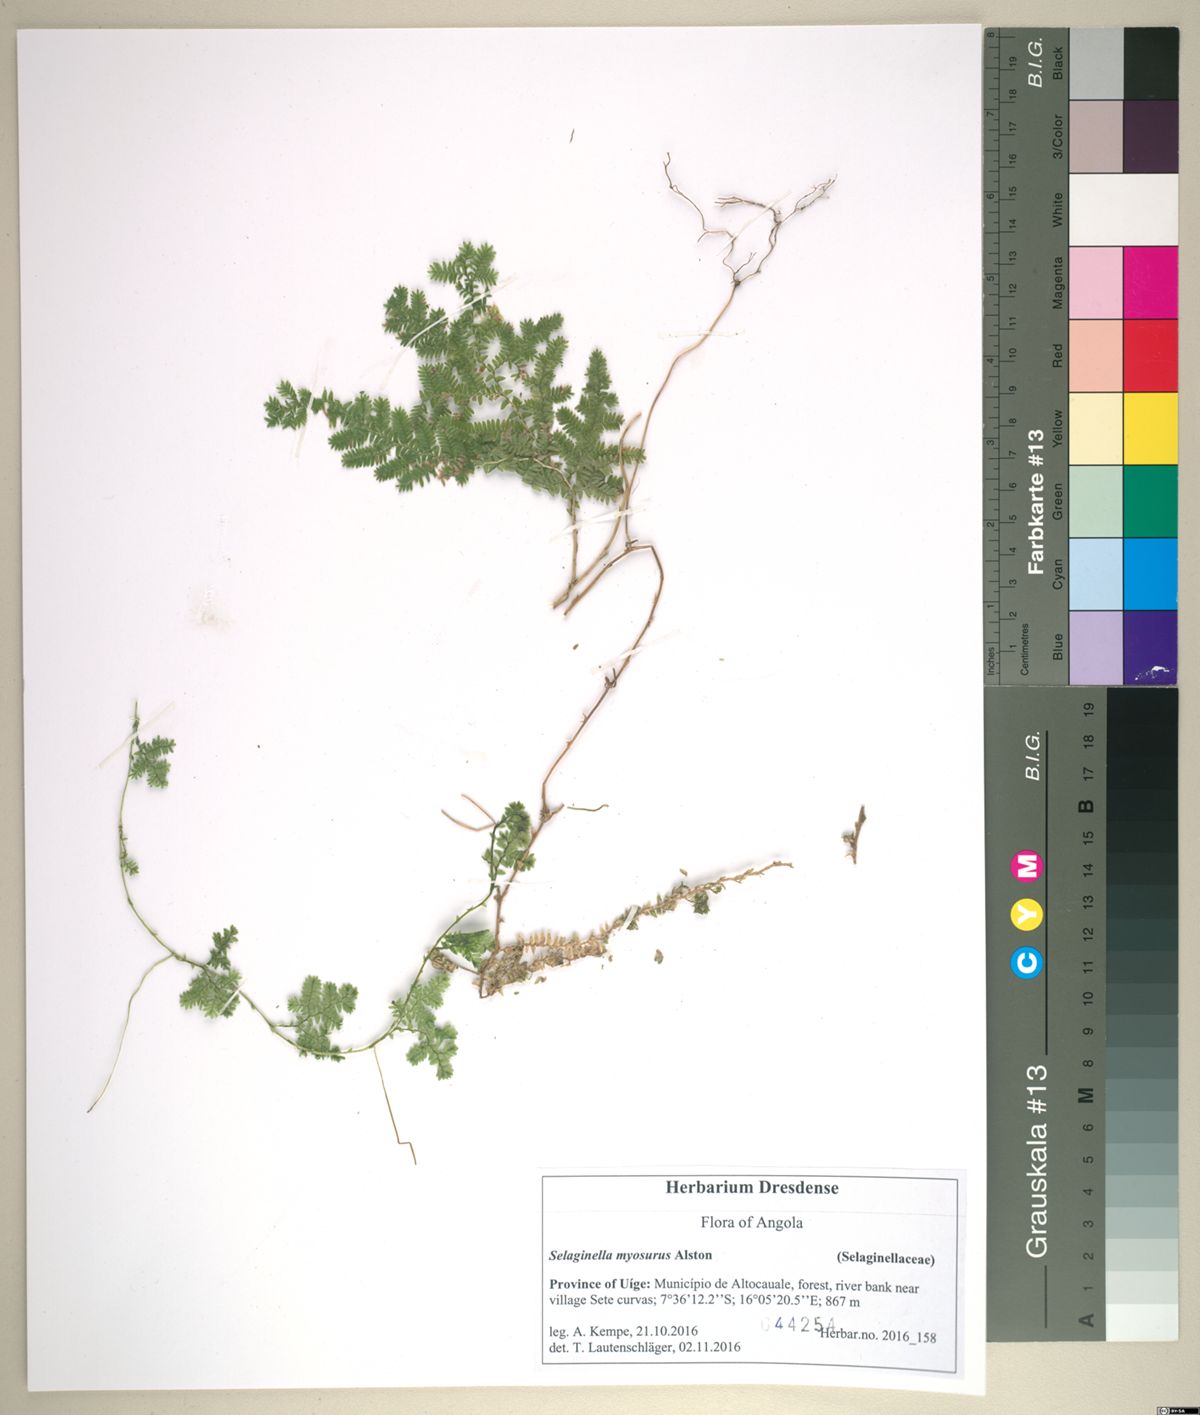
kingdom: Plantae
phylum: Tracheophyta
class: Lycopodiopsida
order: Selaginellales
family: Selaginellaceae
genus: Selaginella
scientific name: Selaginella myosurus
